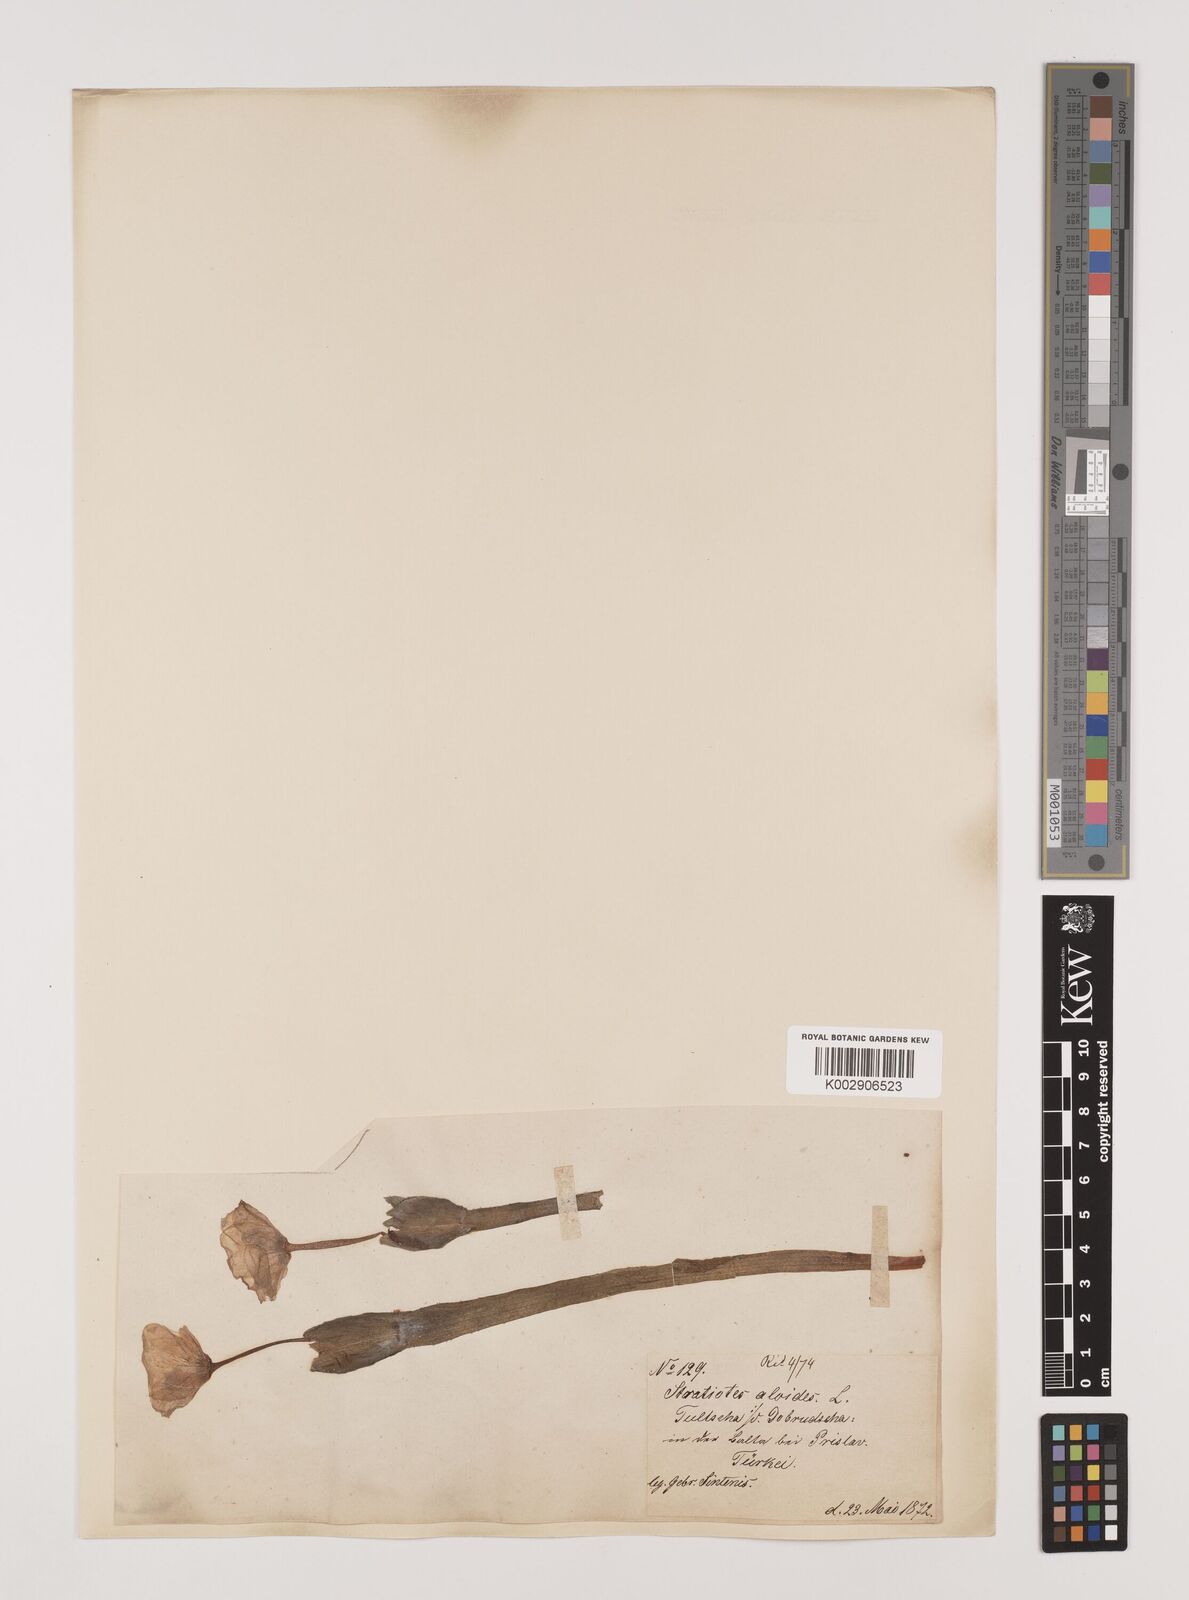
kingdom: Plantae
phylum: Tracheophyta
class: Liliopsida
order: Alismatales
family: Hydrocharitaceae
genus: Stratiotes
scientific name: Stratiotes aloides
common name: Water-soldier
